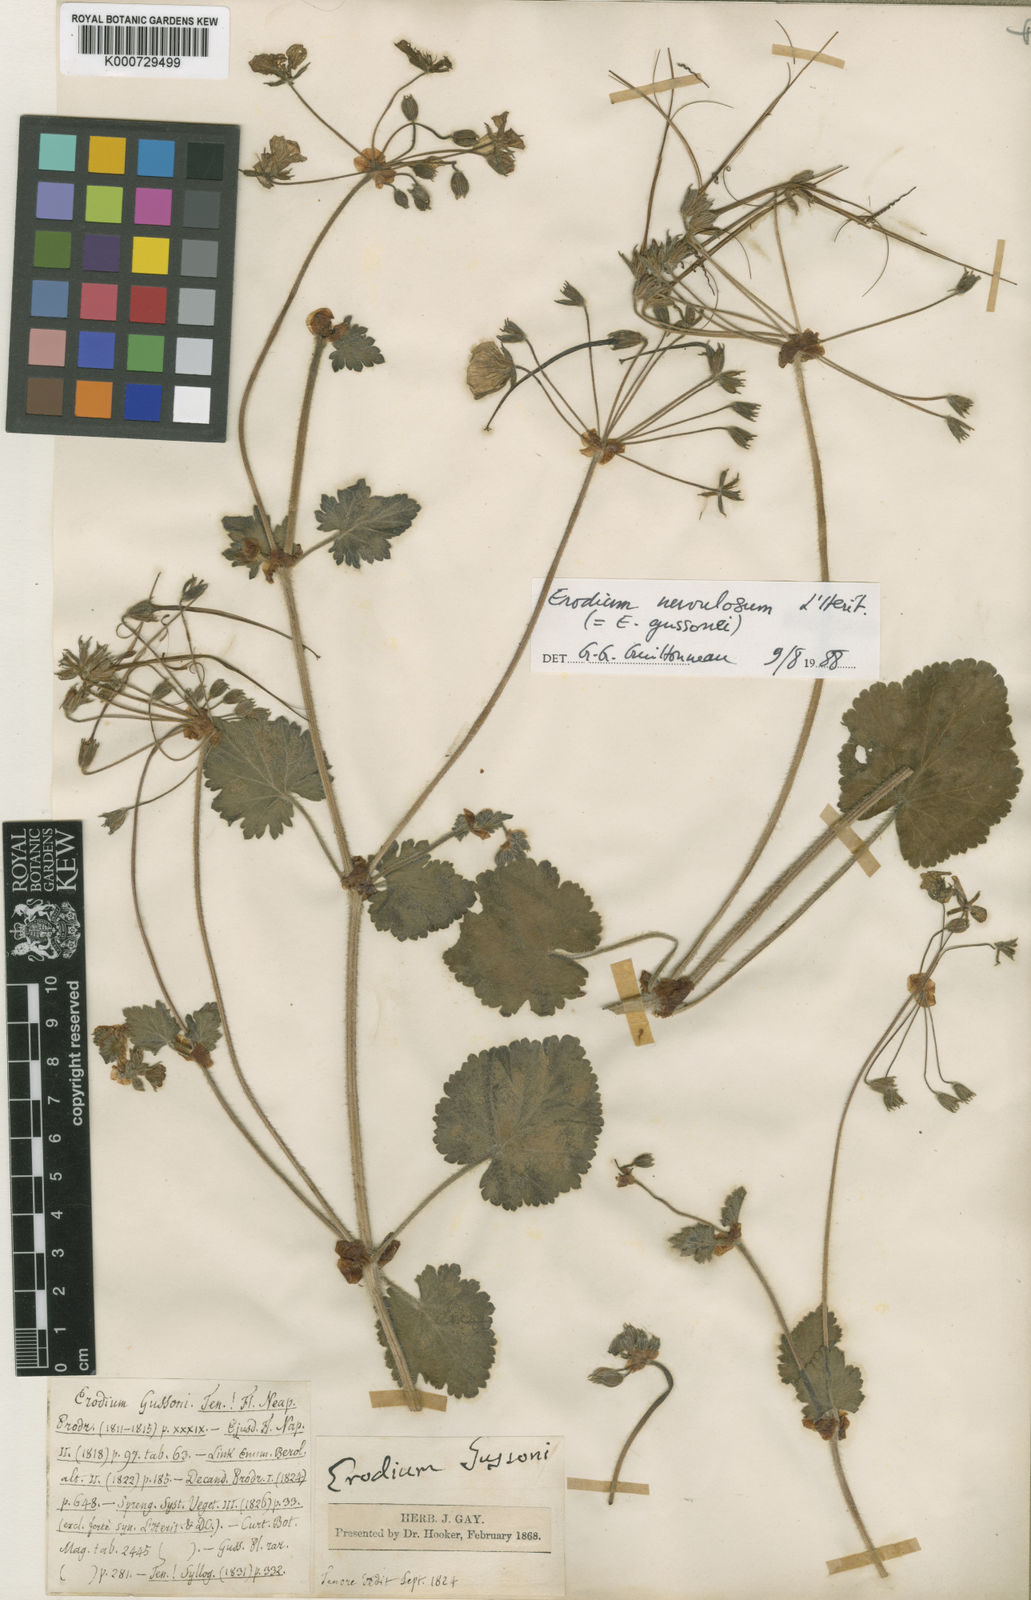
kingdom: Plantae
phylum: Tracheophyta
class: Magnoliopsida
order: Geraniales
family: Geraniaceae
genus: Erodium
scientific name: Erodium nervulosum
